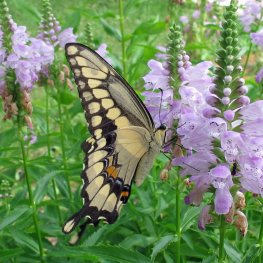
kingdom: Animalia
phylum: Arthropoda
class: Insecta
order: Lepidoptera
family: Papilionidae
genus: Papilio
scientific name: Papilio cresphontes
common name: Eastern Giant Swallowtail
